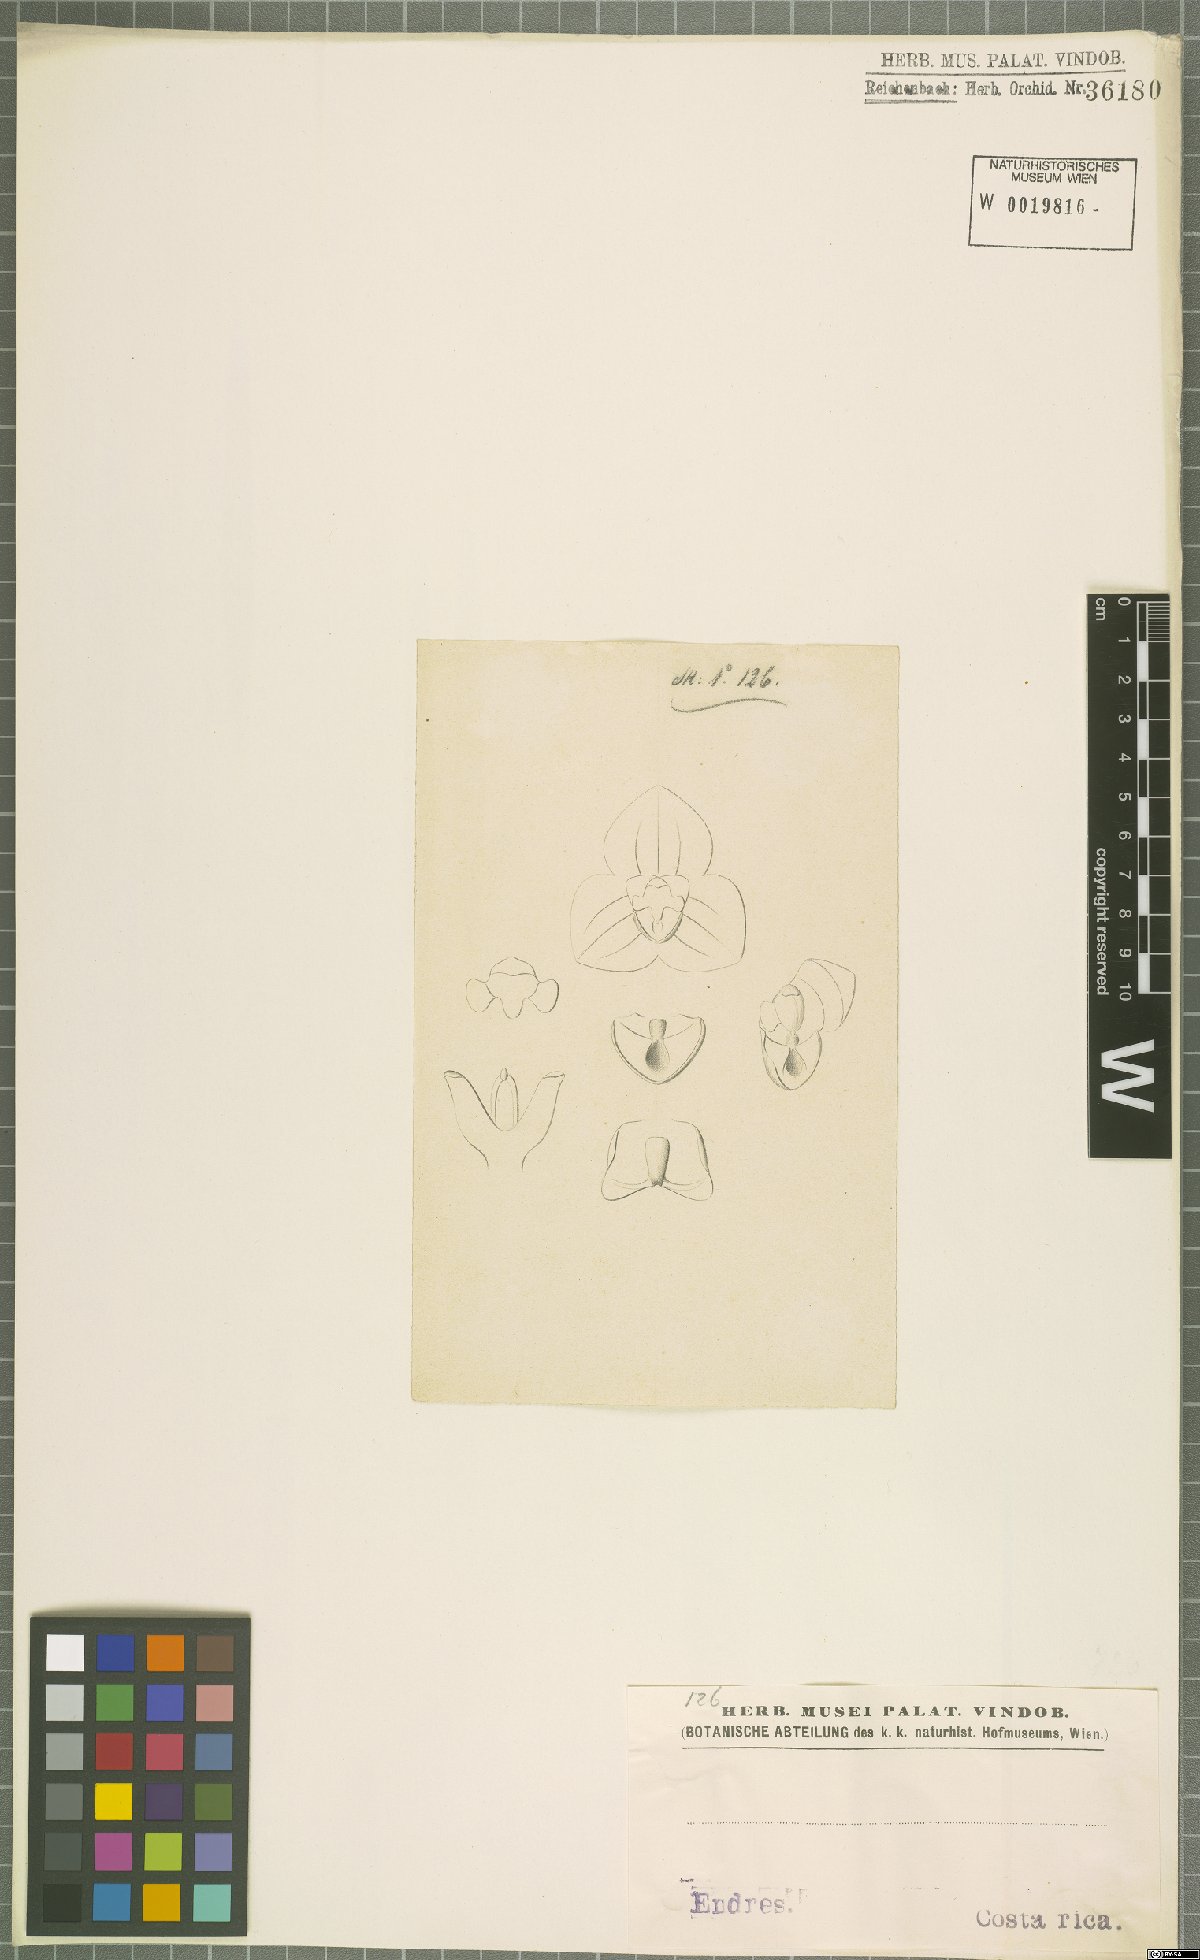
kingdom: Plantae
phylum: Tracheophyta
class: Liliopsida
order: Asparagales
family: Orchidaceae
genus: Stelis
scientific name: Stelis
